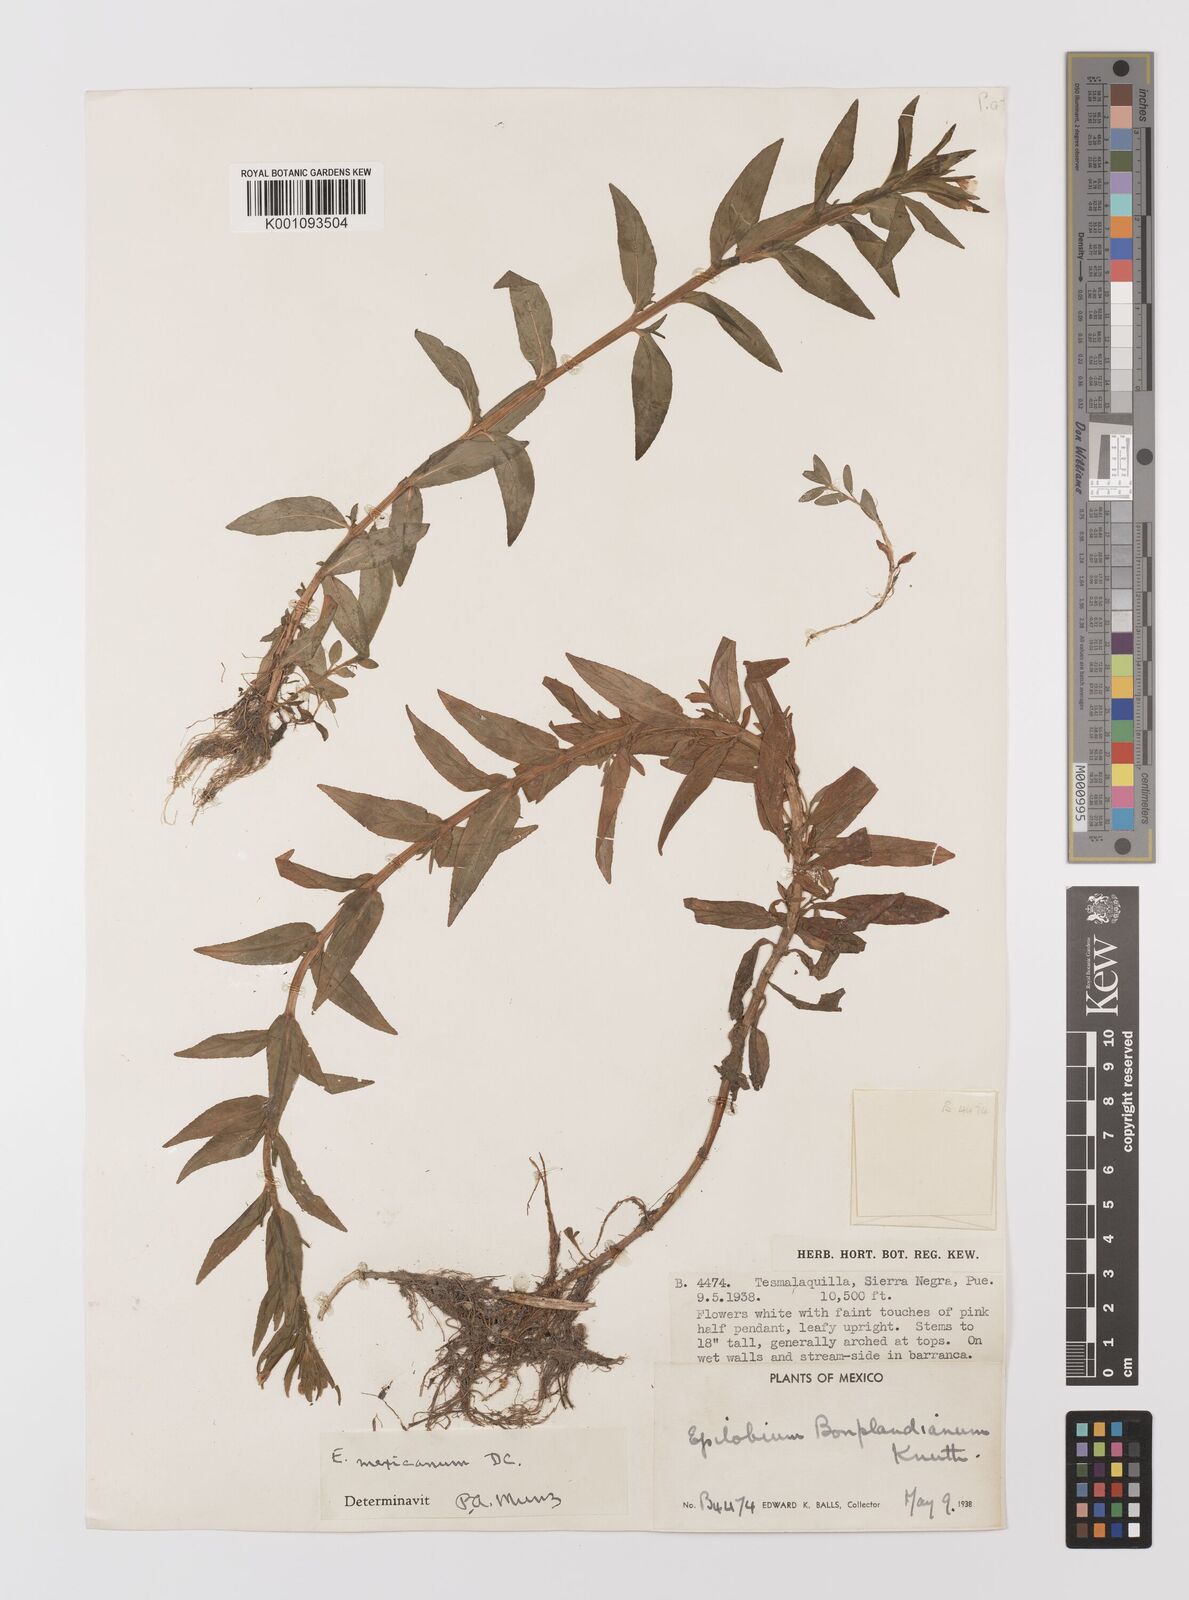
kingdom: Plantae
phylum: Tracheophyta
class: Magnoliopsida
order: Myrtales
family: Onagraceae
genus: Epilobium
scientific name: Epilobium
